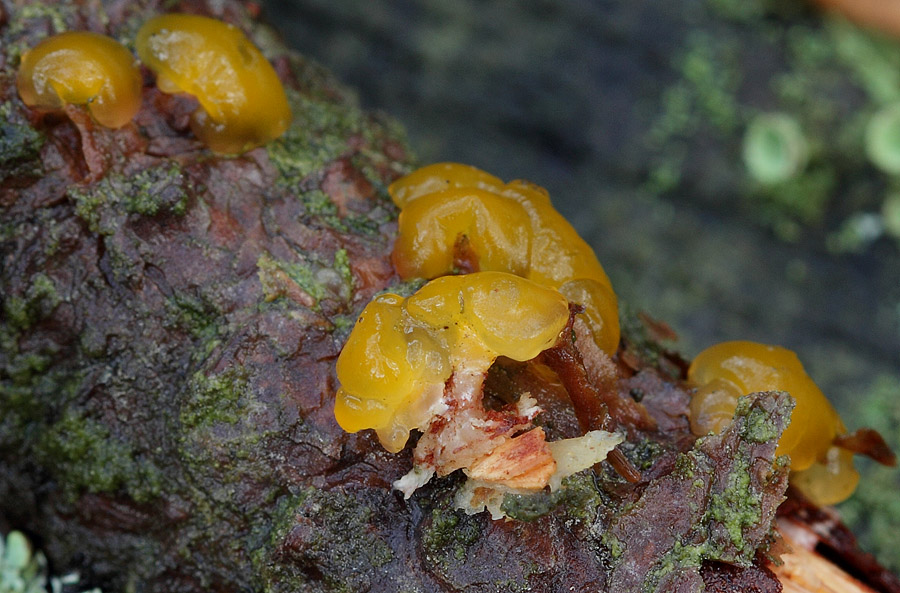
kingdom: Fungi
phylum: Basidiomycota
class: Dacrymycetes
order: Dacrymycetales
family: Dacrymycetaceae
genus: Ditiola
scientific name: Ditiola radicata
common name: rod-tåresvamp
